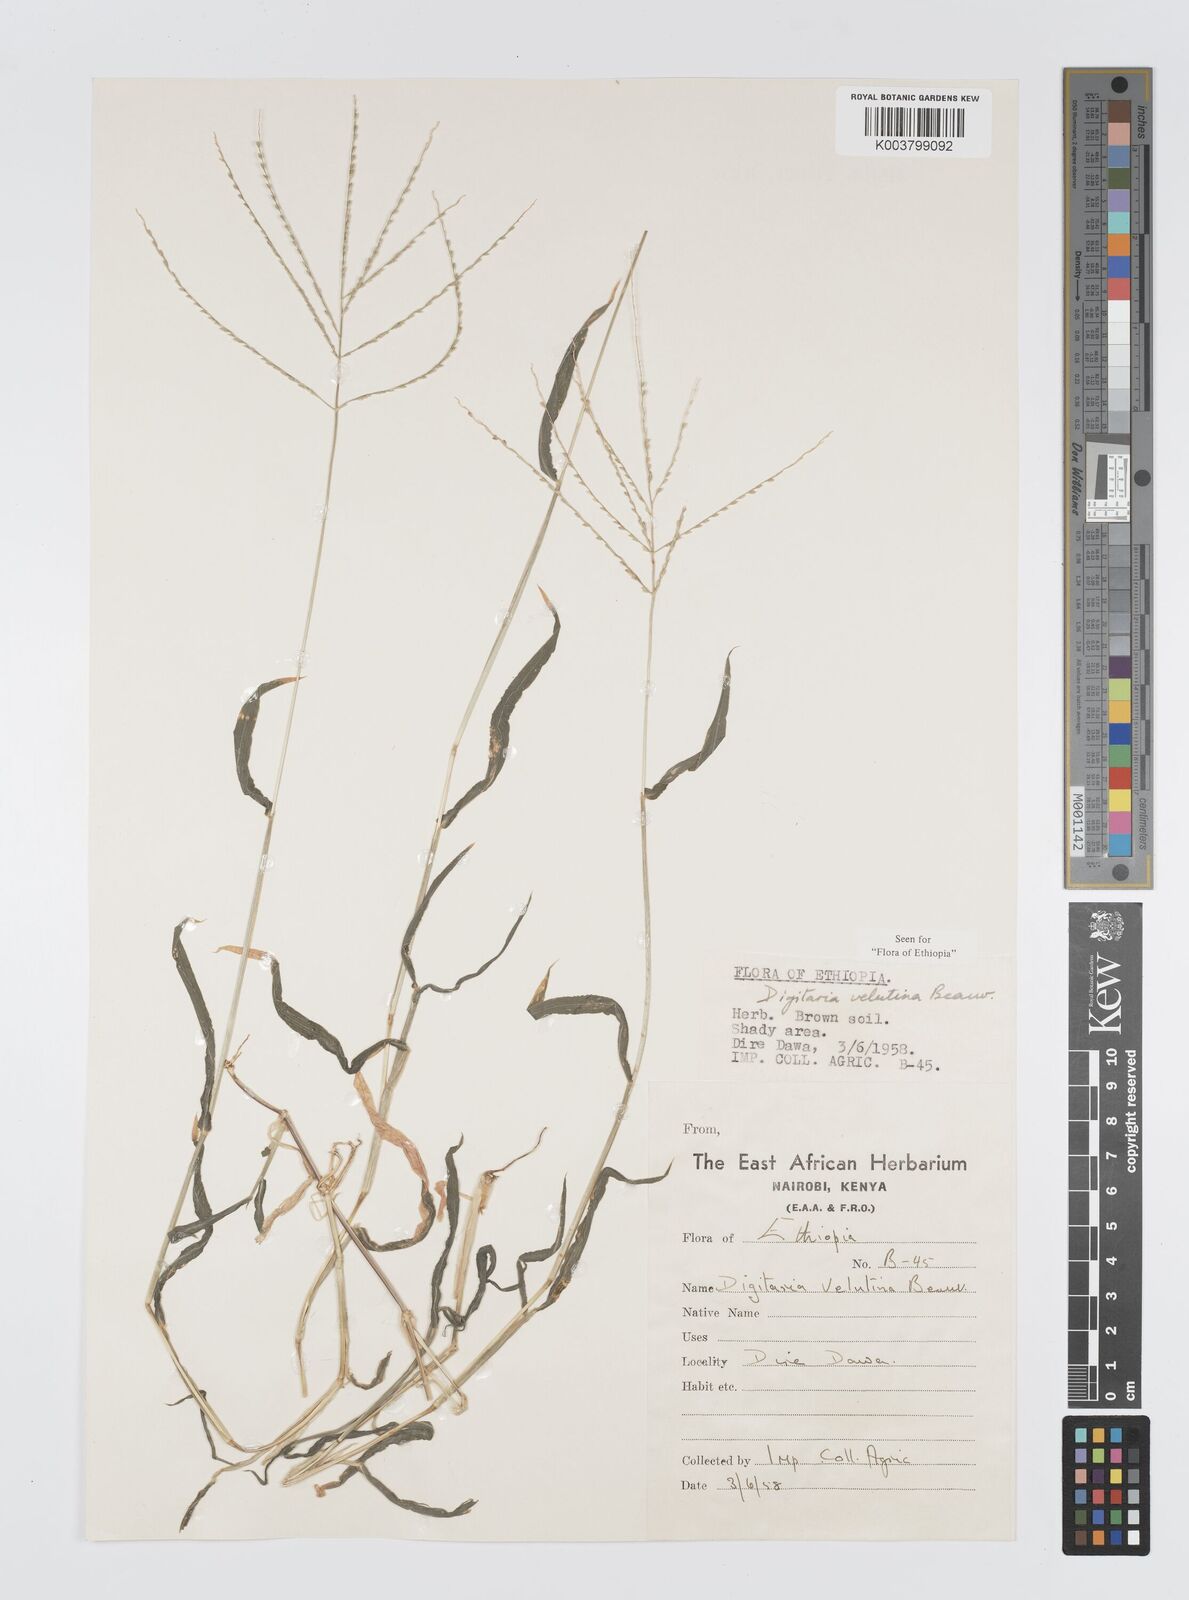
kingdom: Plantae
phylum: Tracheophyta
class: Liliopsida
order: Poales
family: Poaceae
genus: Digitaria
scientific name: Digitaria velutina
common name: Long-plume finger grass
